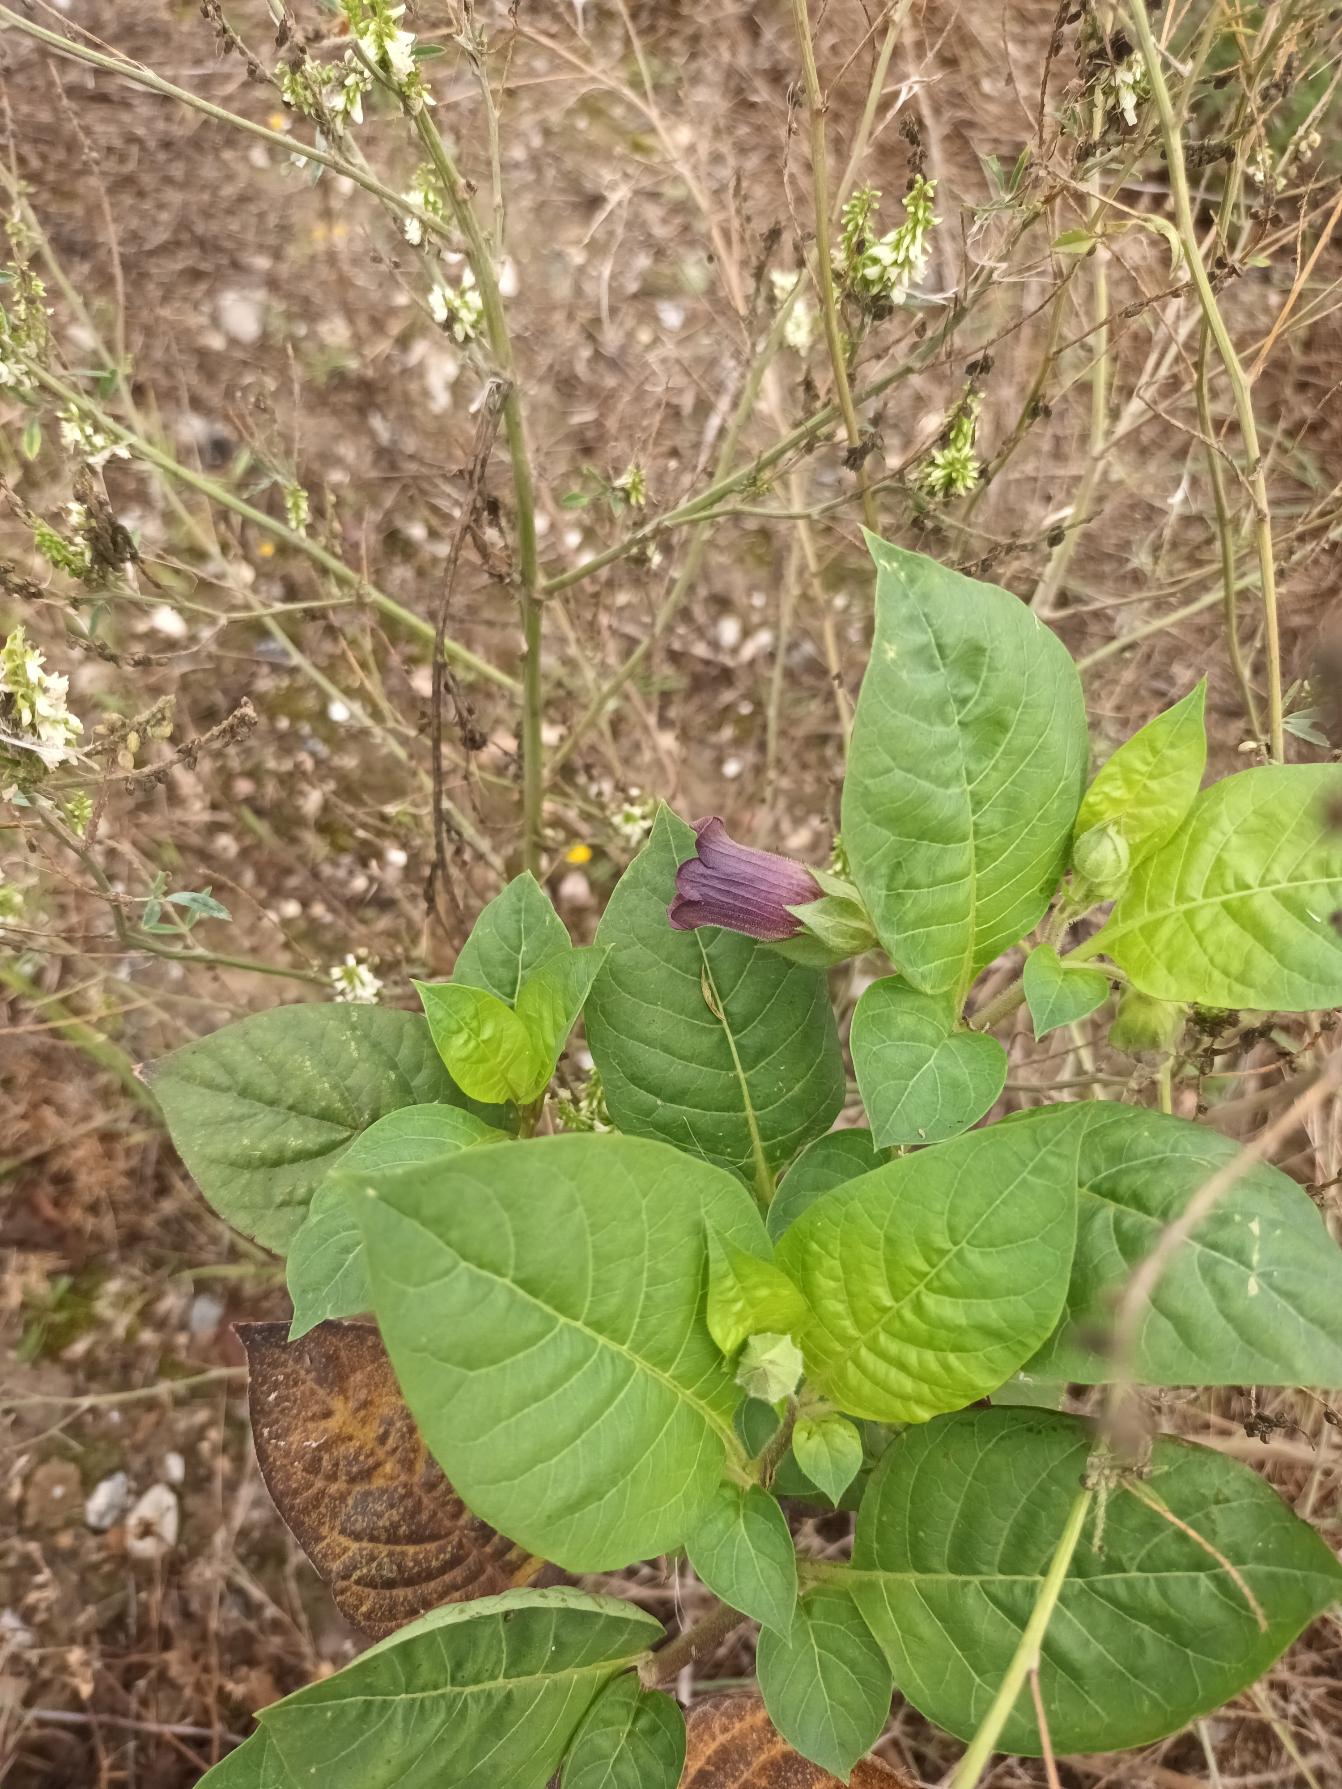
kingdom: Plantae
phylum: Tracheophyta
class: Magnoliopsida
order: Solanales
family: Solanaceae
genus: Atropa
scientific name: Atropa belladonna
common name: Galnebær
